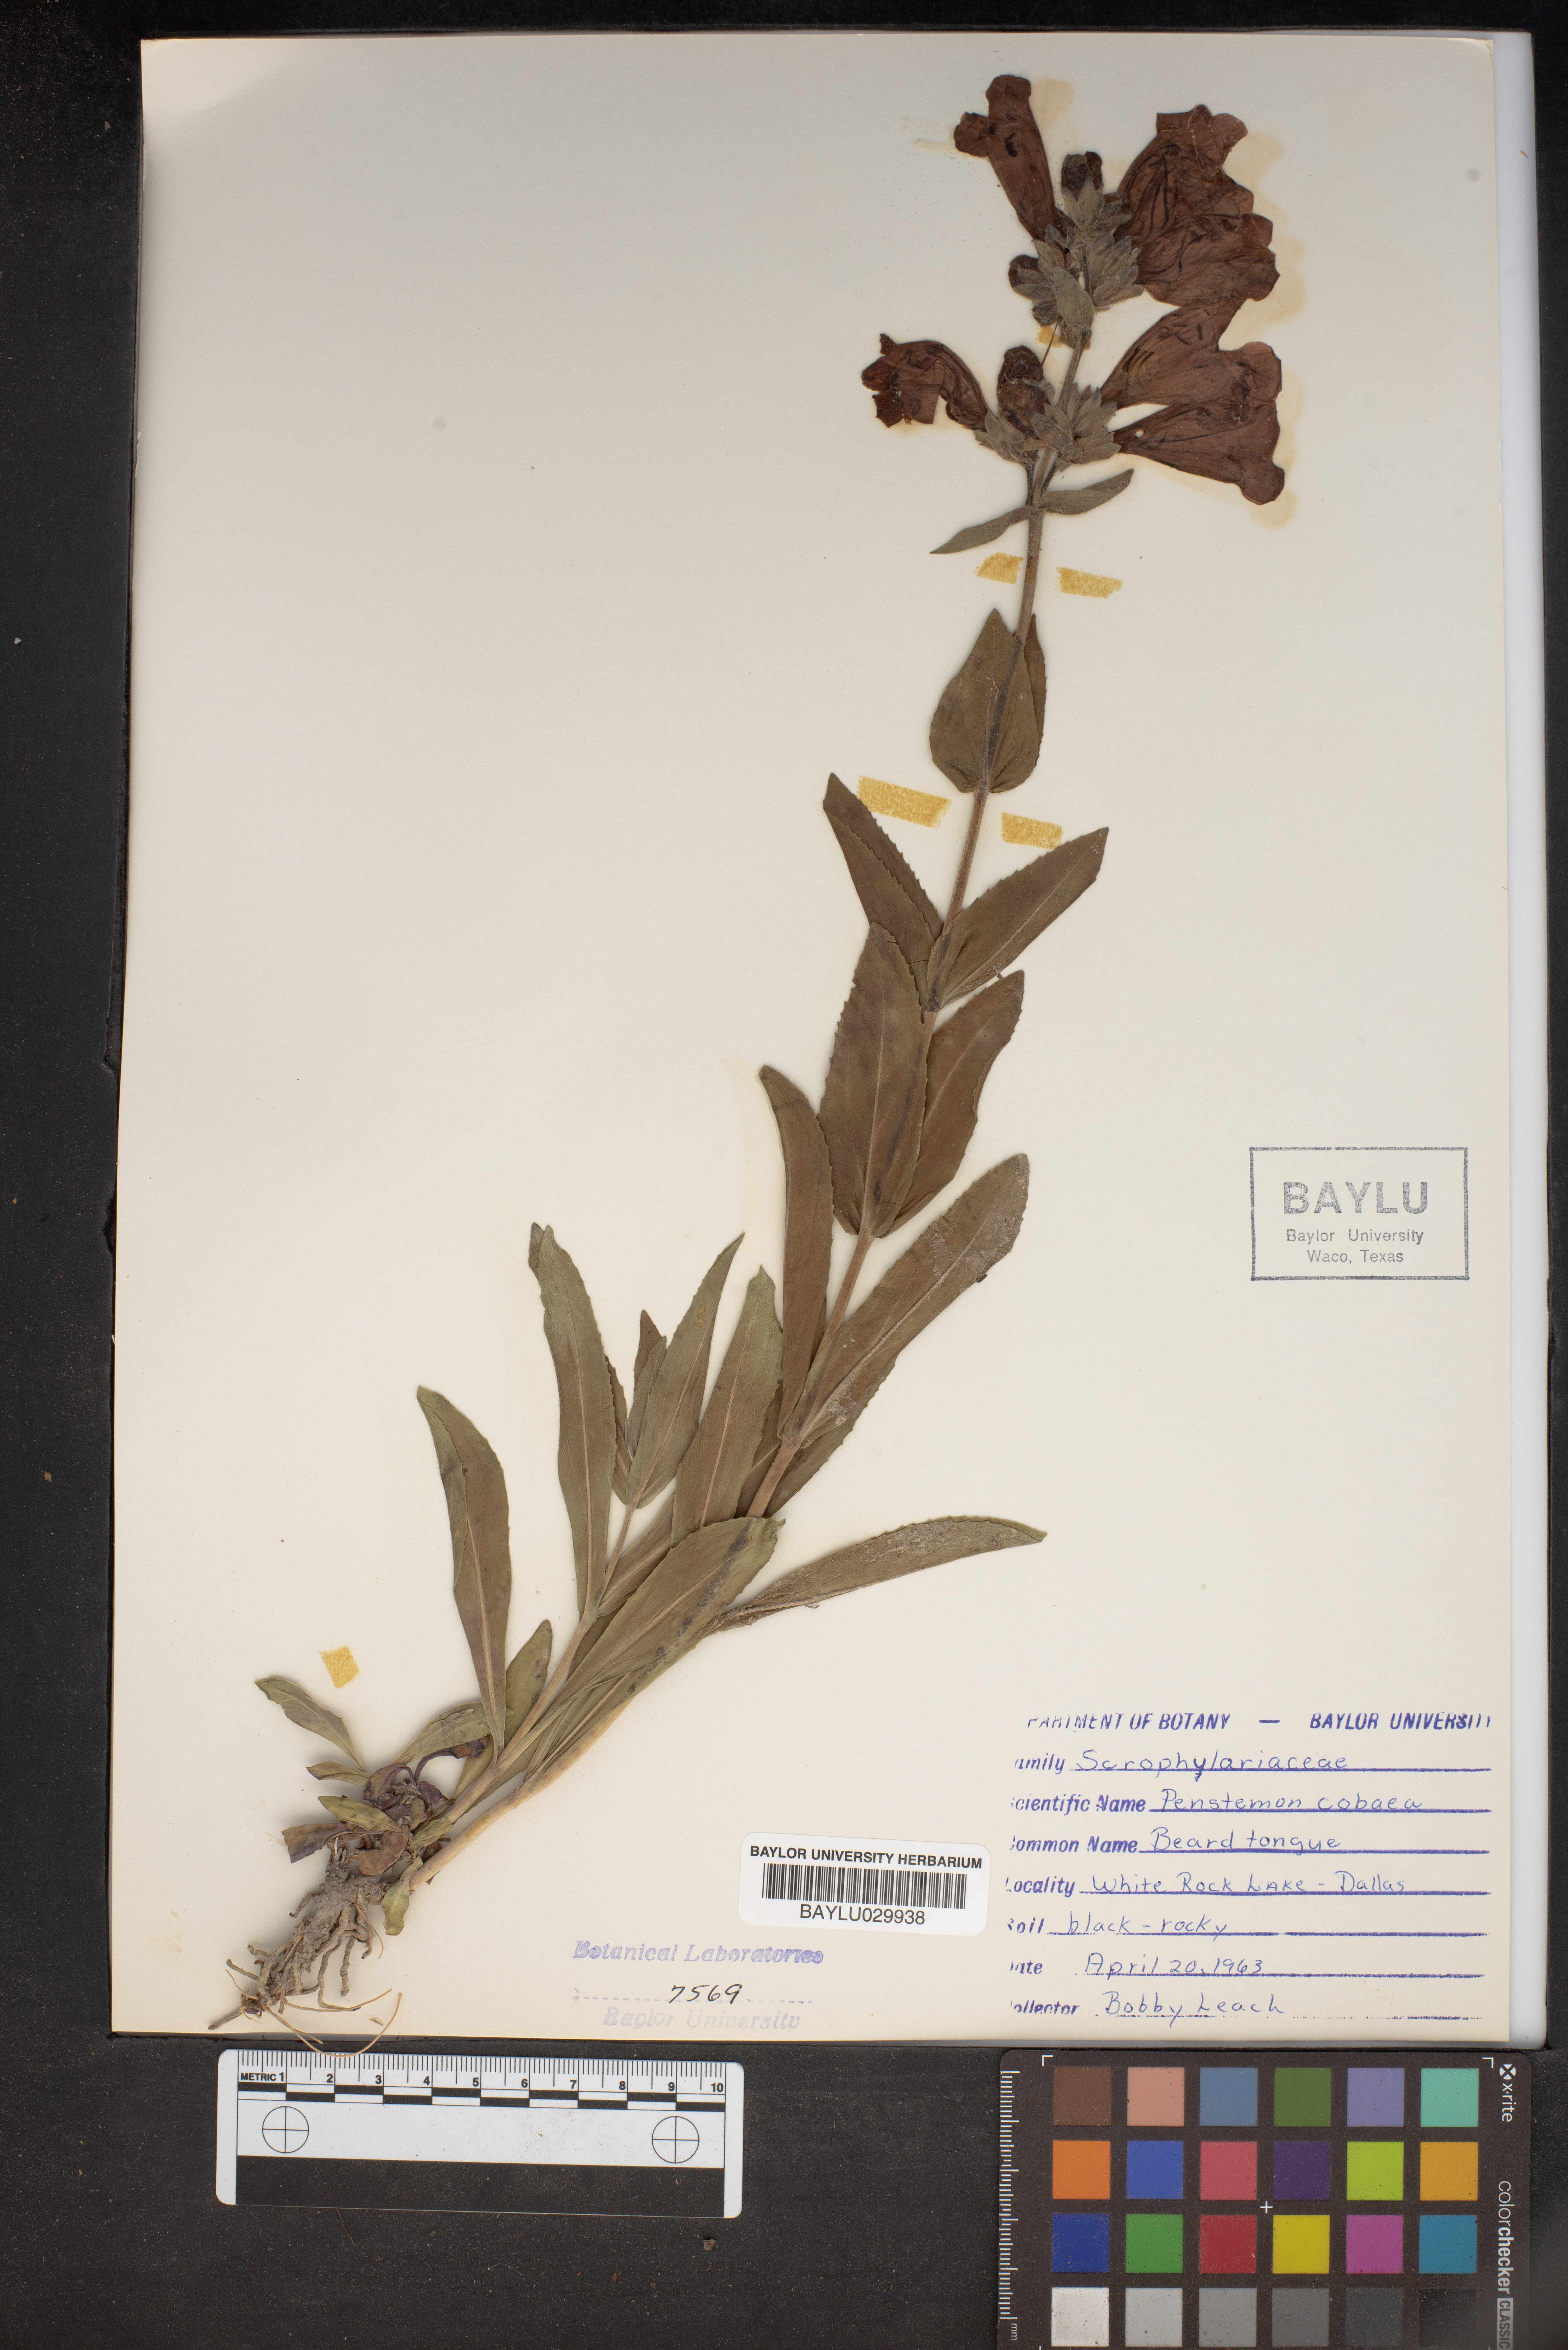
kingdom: Plantae
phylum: Tracheophyta
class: Magnoliopsida
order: Lamiales
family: Plantaginaceae
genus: Penstemon
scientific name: Penstemon cobaea
